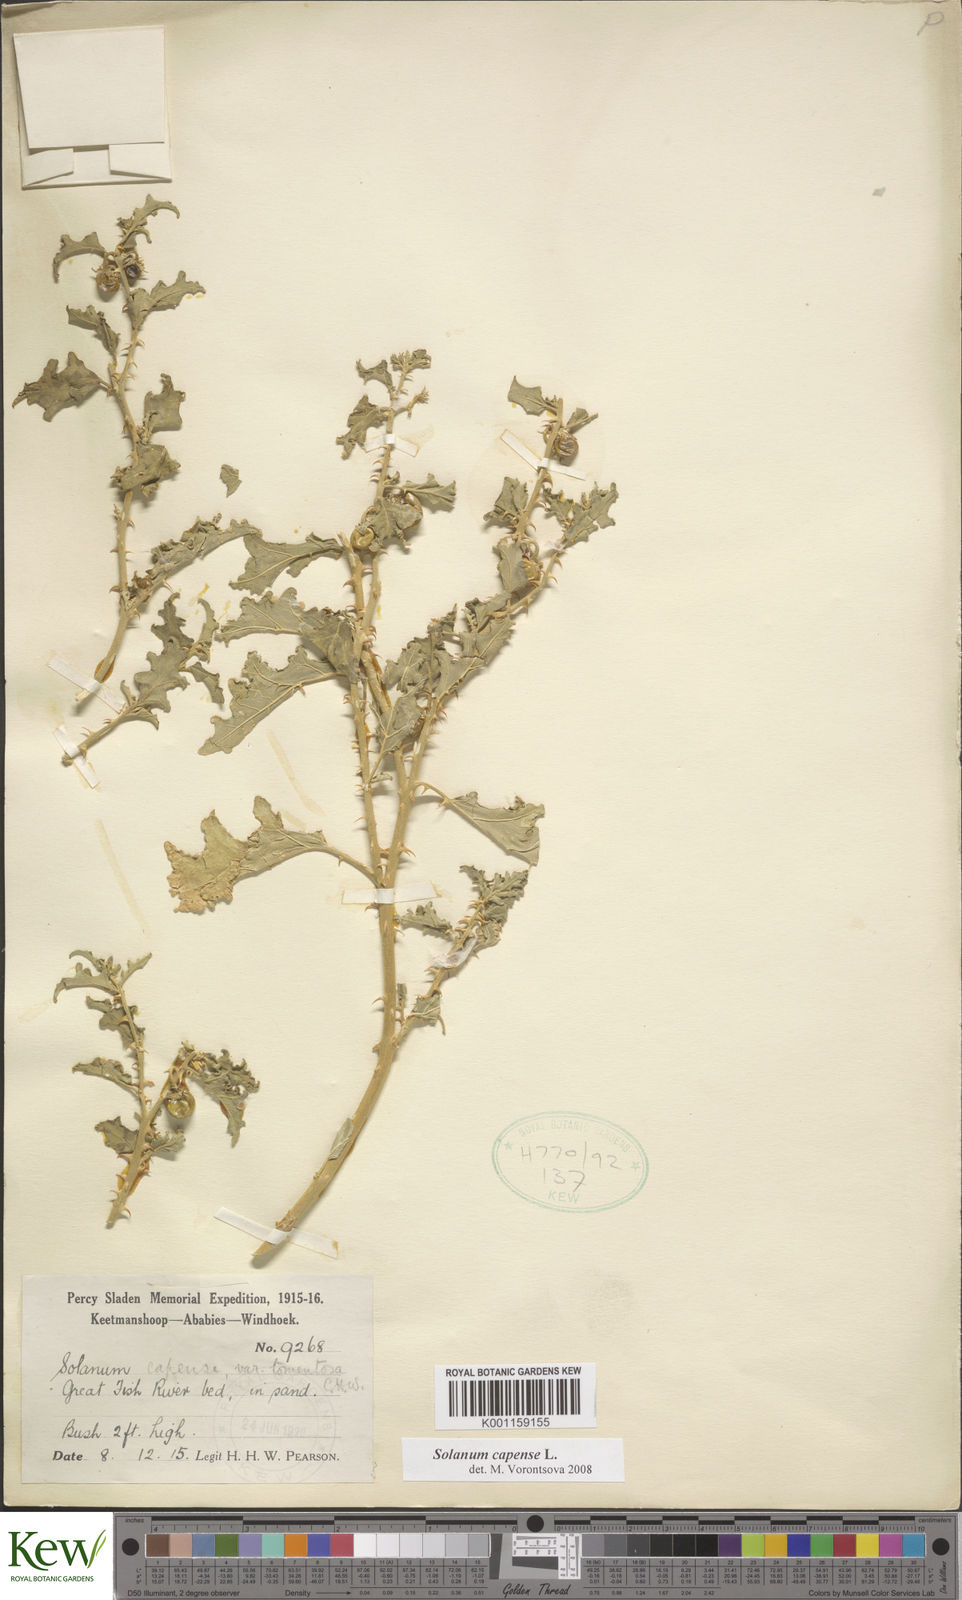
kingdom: Plantae
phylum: Tracheophyta
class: Magnoliopsida
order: Solanales
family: Solanaceae
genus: Solanum
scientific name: Solanum capense
